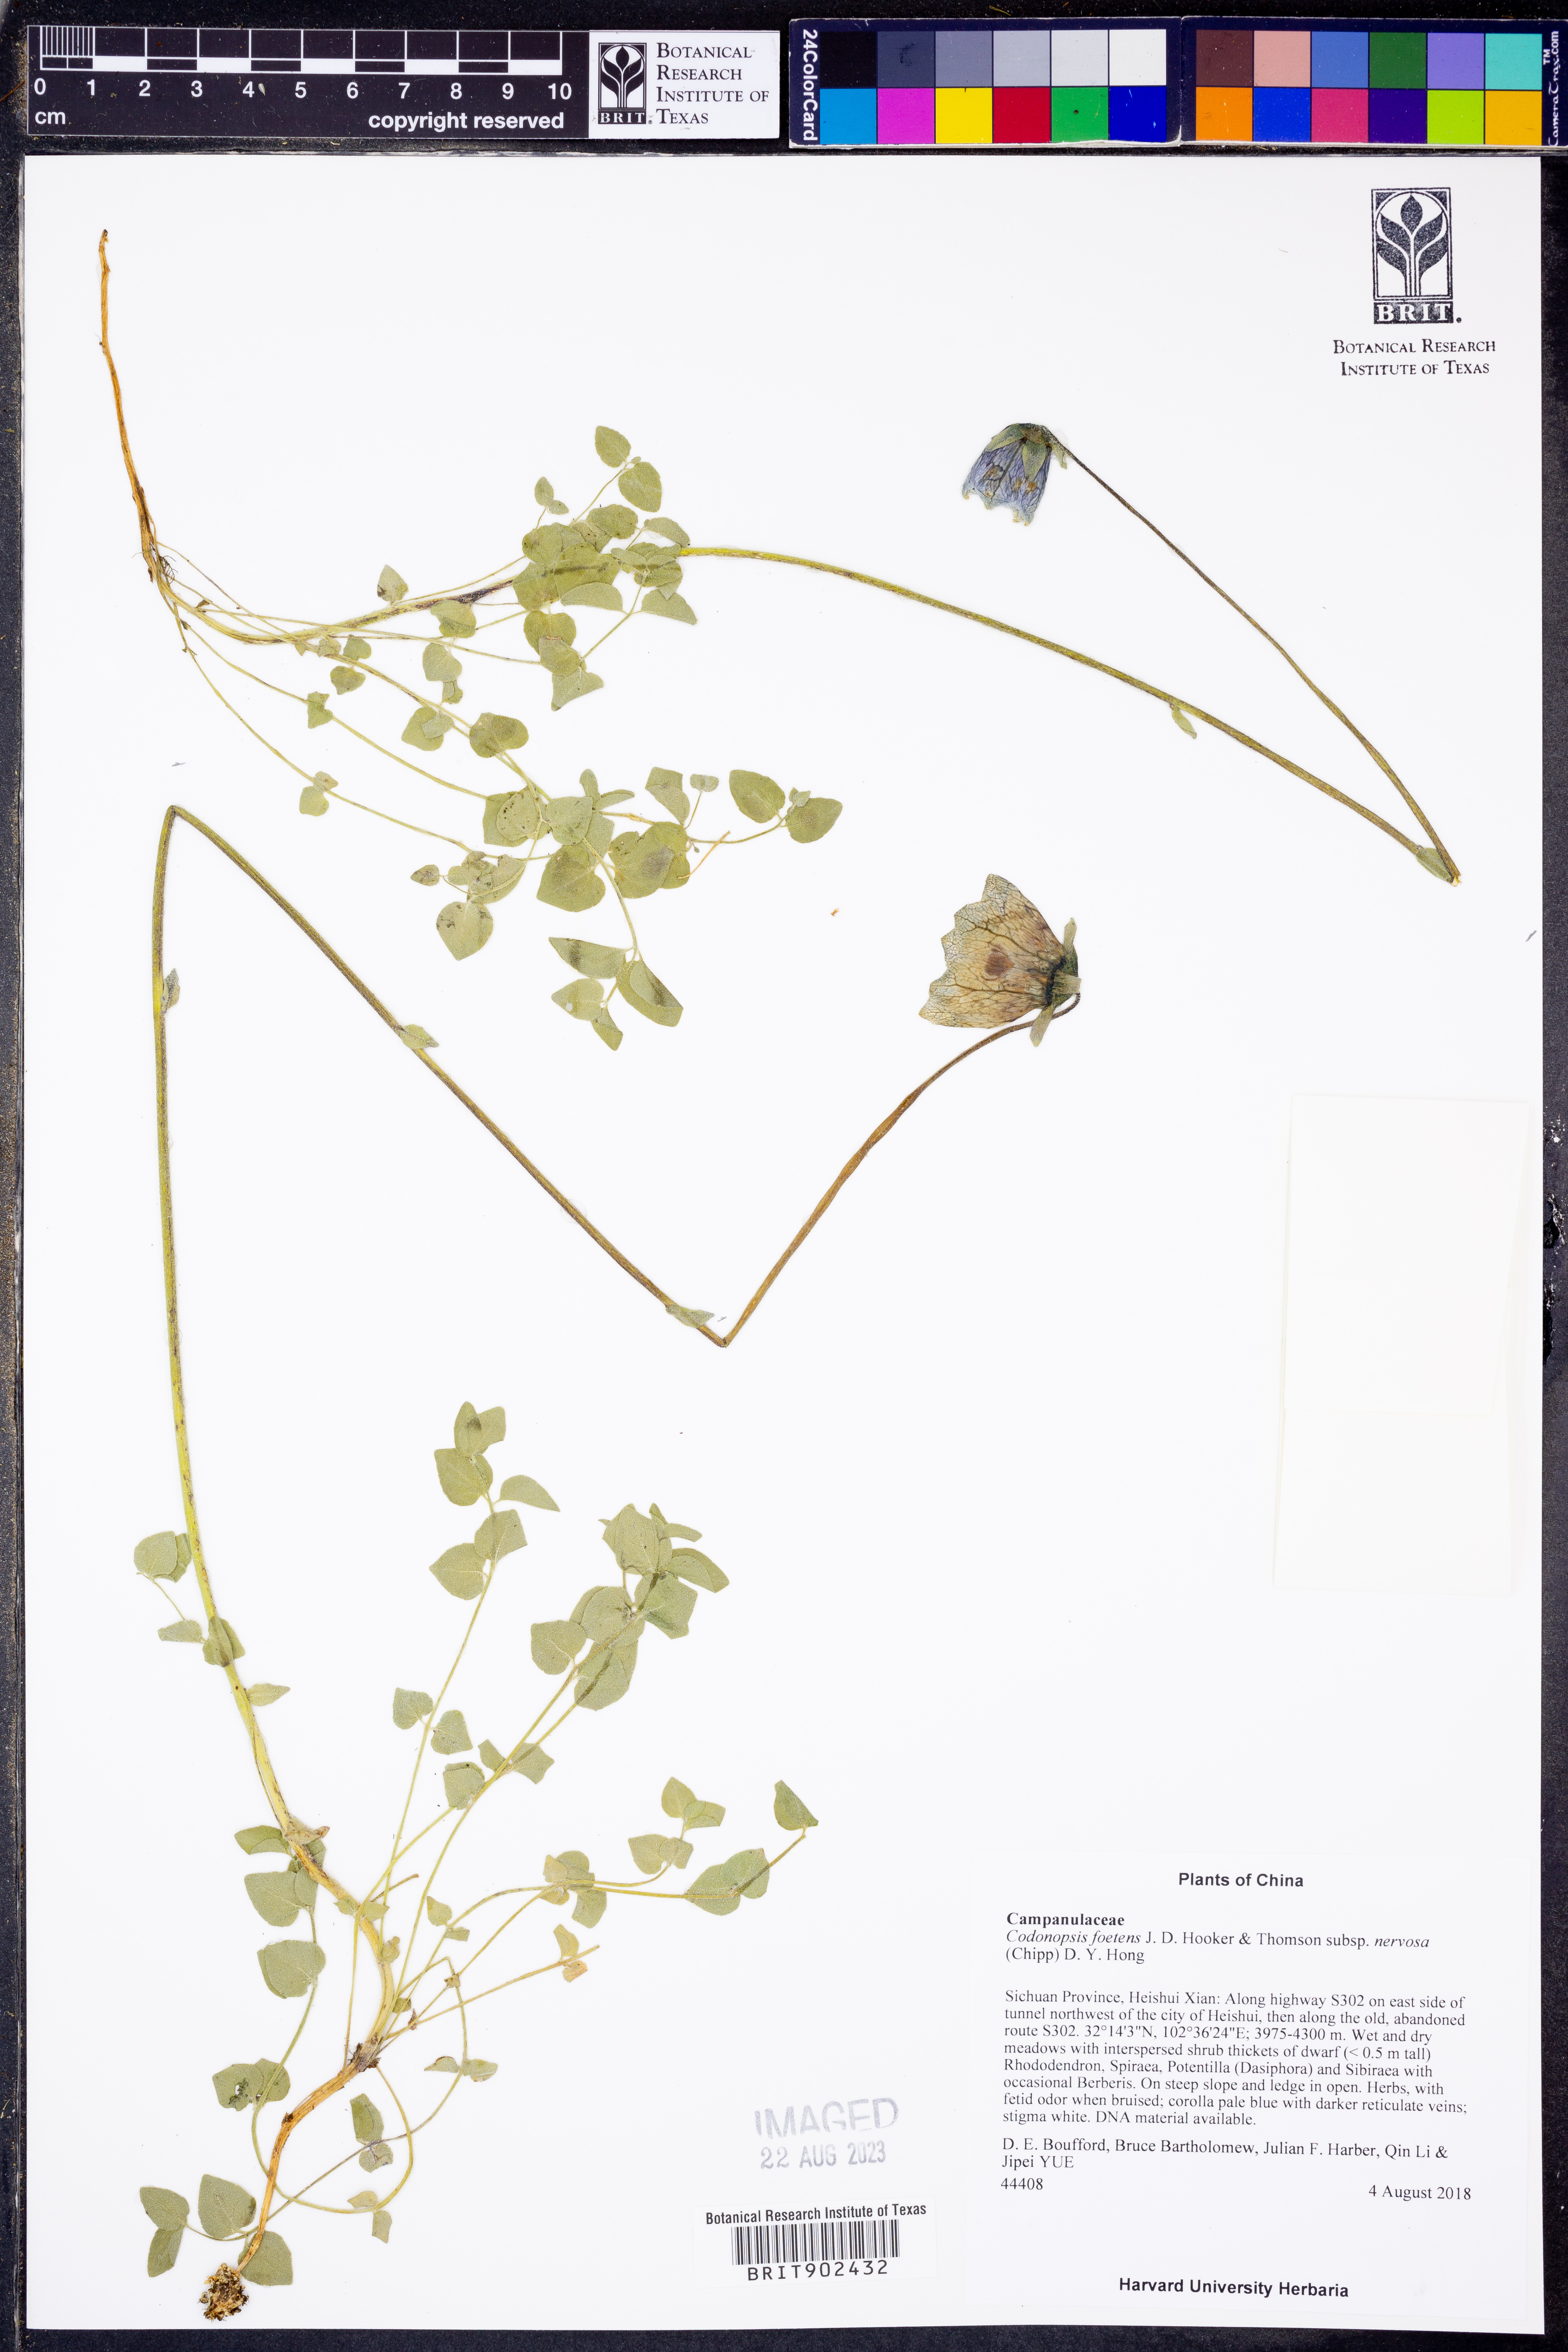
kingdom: Plantae
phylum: Tracheophyta
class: Magnoliopsida
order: Asterales
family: Campanulaceae
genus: Pseudocodon
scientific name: Pseudocodon convolvulaceus
